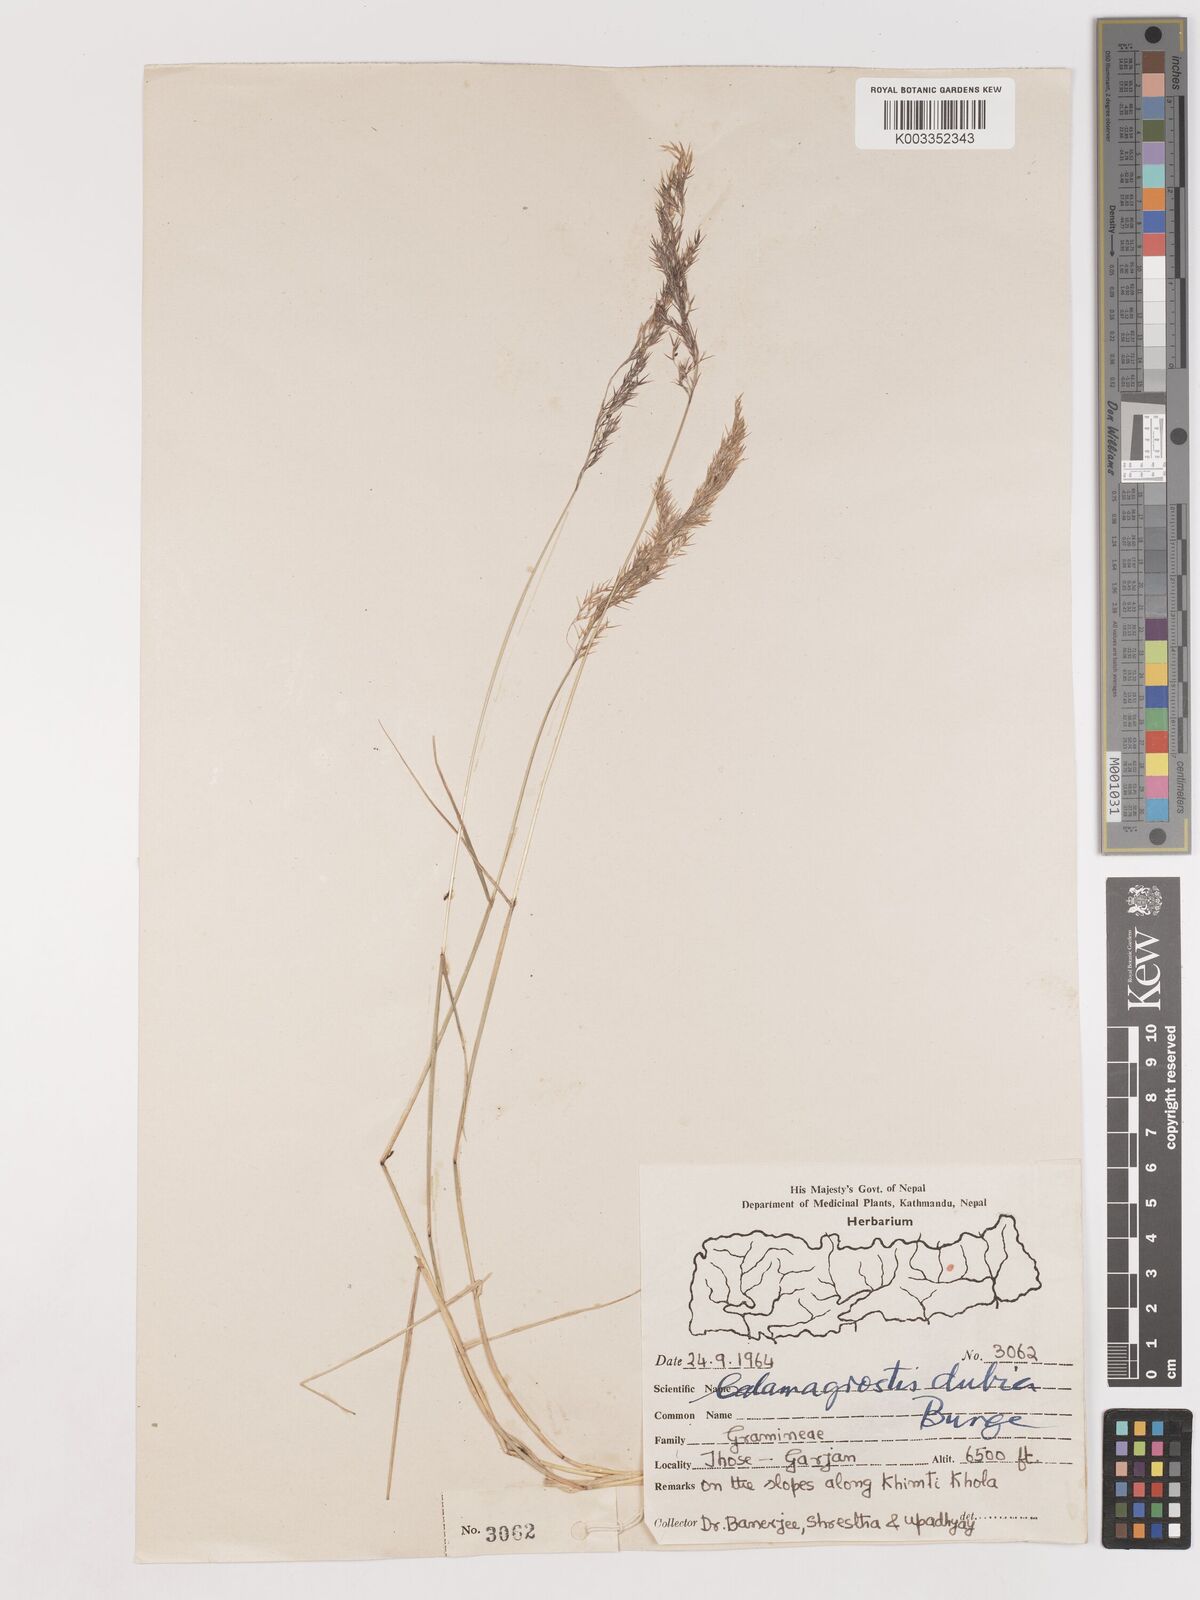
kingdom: Plantae
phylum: Tracheophyta
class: Liliopsida
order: Poales
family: Poaceae
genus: Calamagrostis
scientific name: Calamagrostis pseudophragmites
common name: Coastal small-reed
